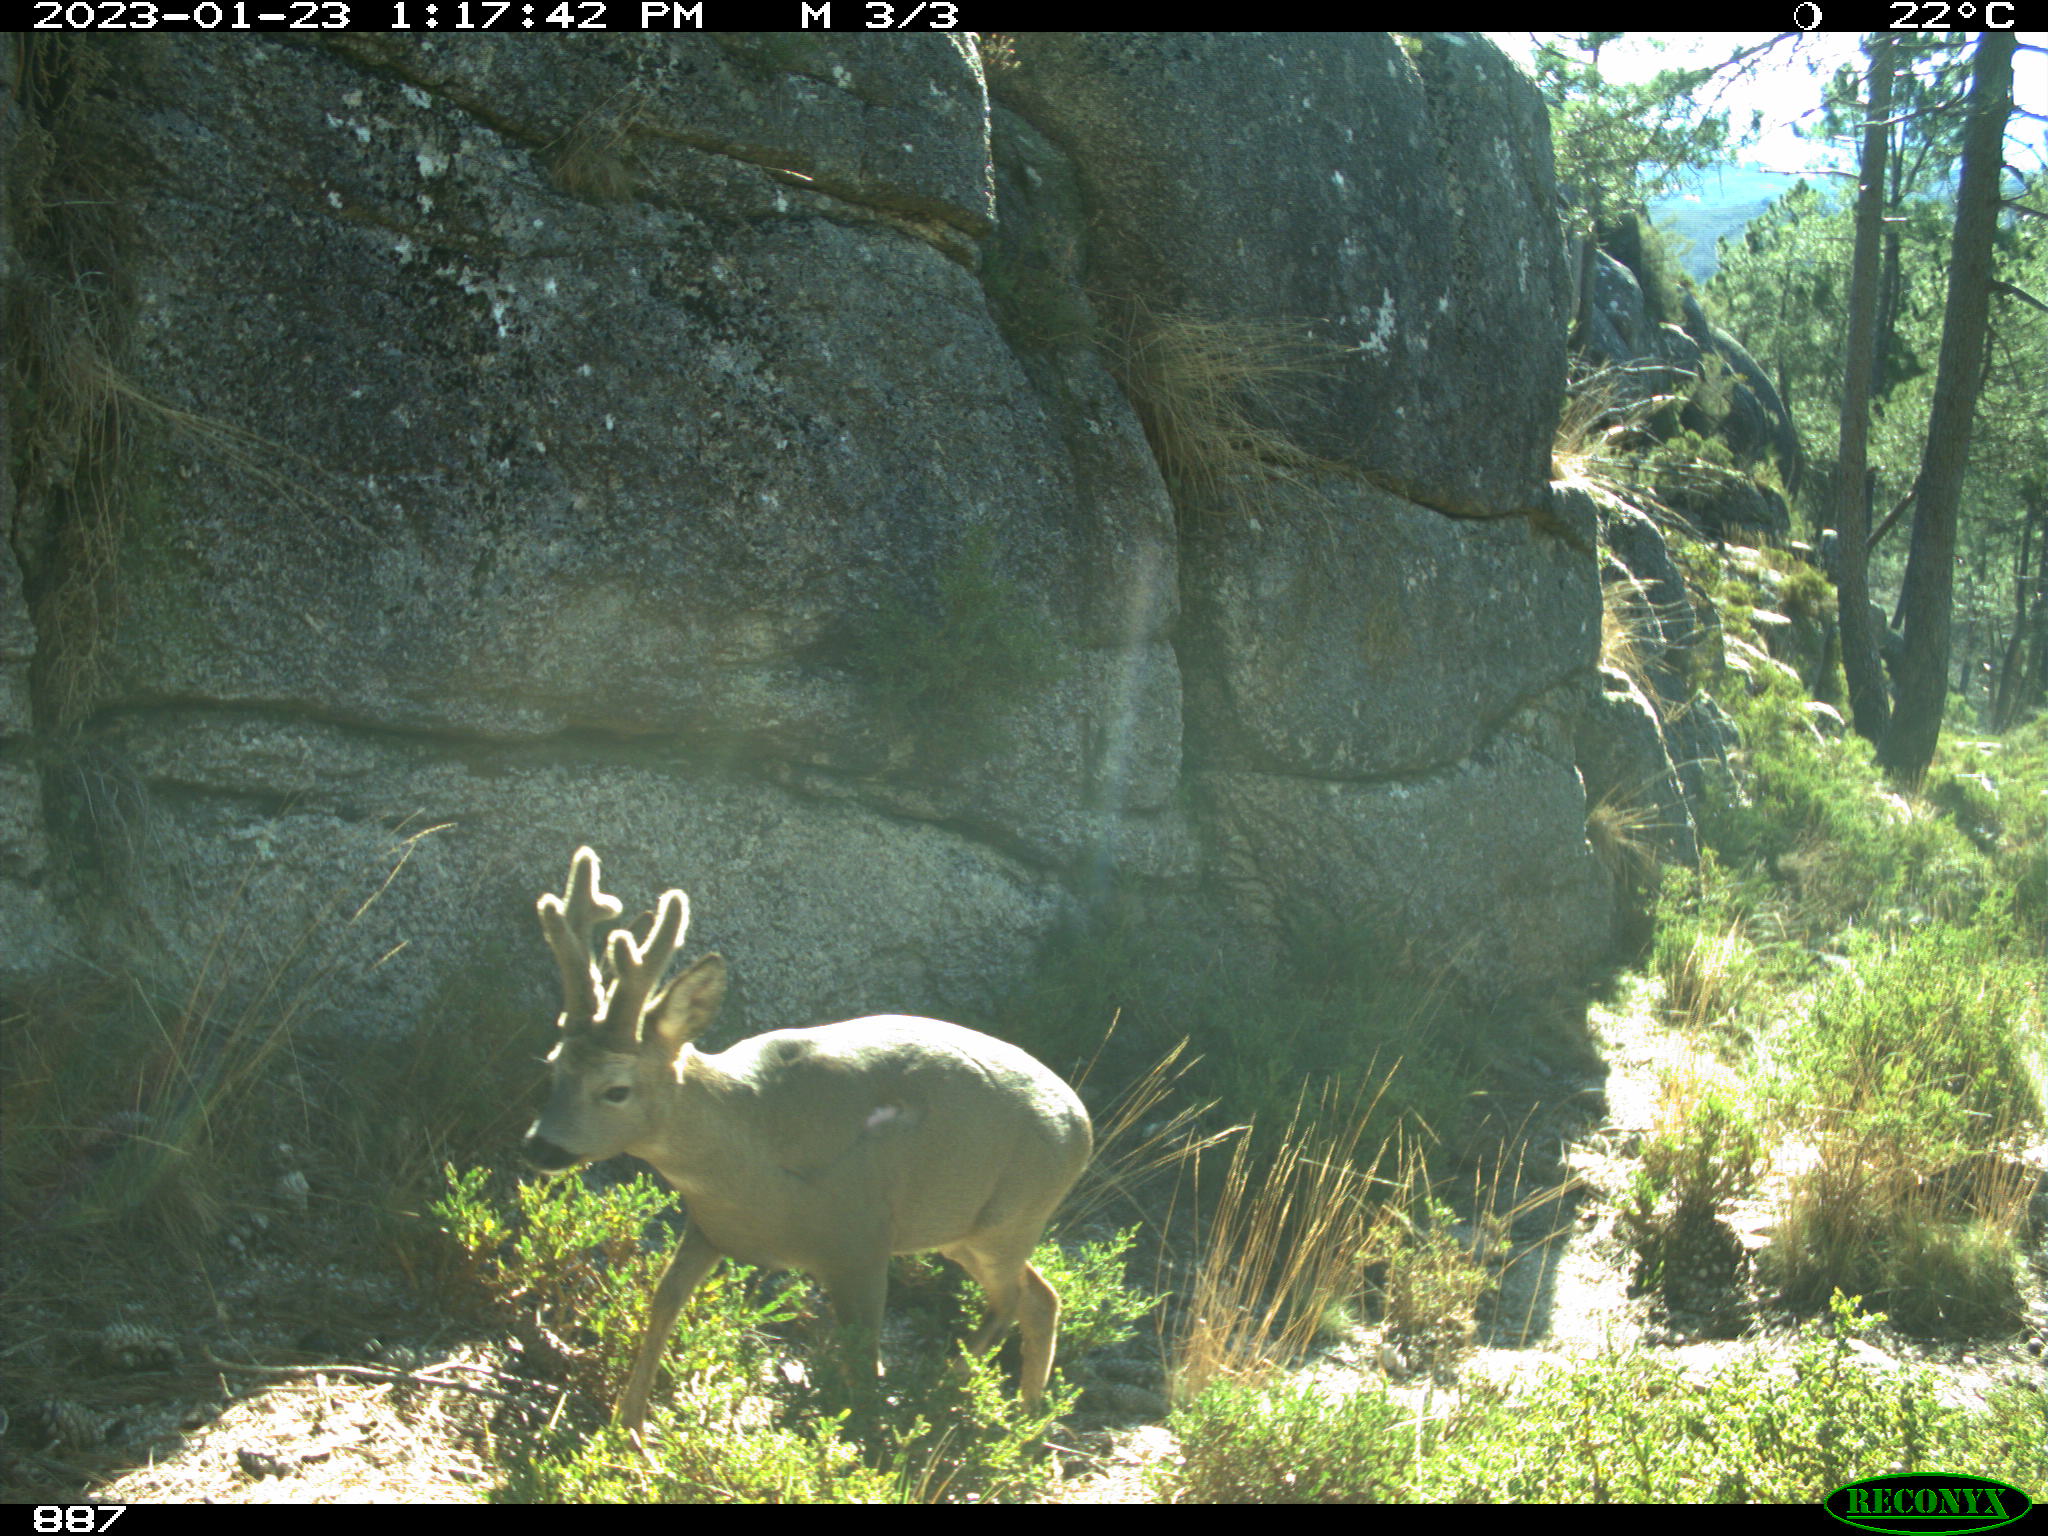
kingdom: Animalia
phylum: Chordata
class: Mammalia
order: Artiodactyla
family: Cervidae
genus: Capreolus
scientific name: Capreolus capreolus
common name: Western roe deer
